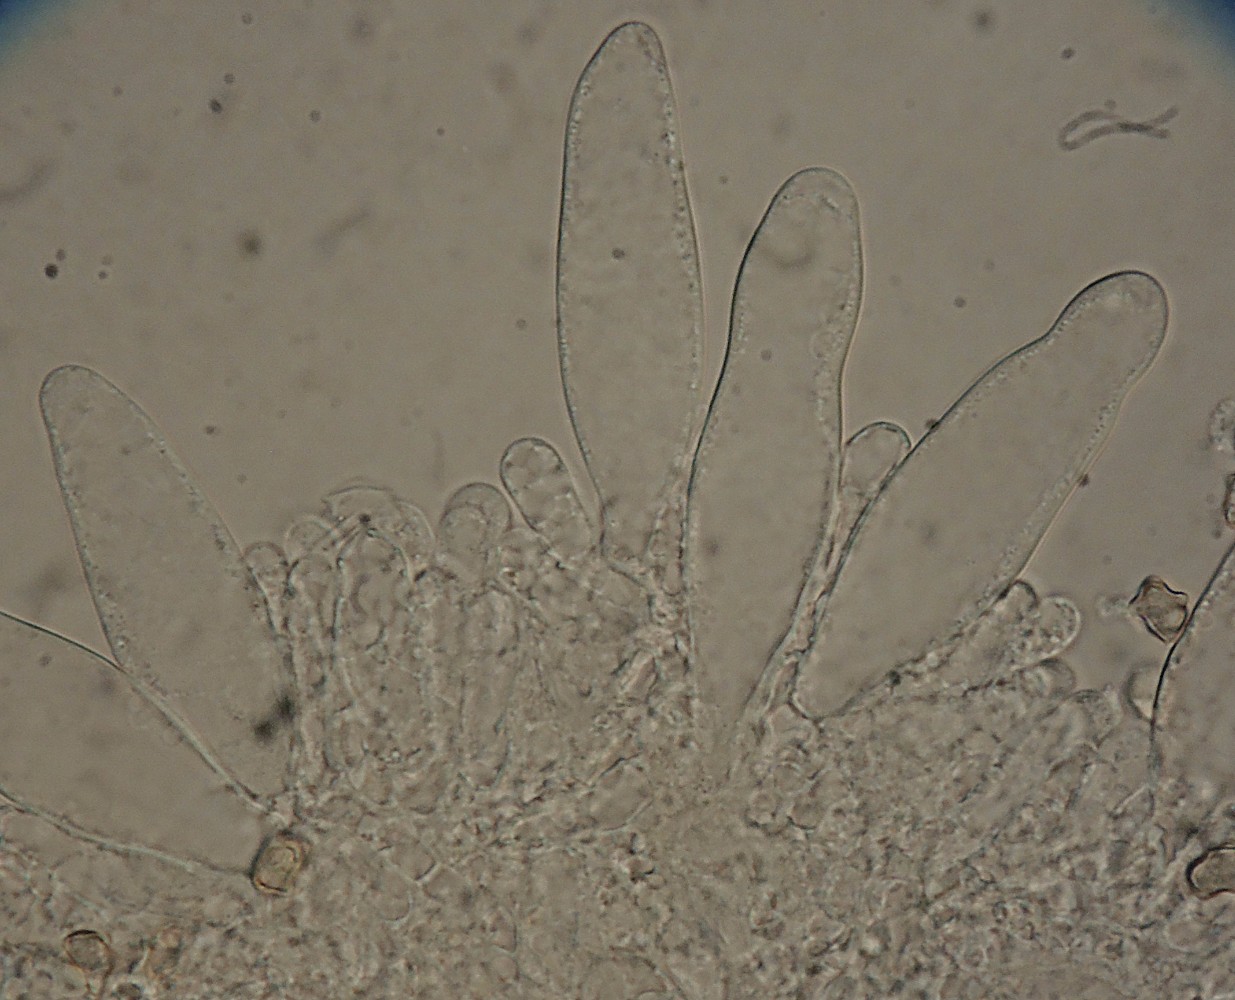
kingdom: Fungi
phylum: Basidiomycota
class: Agaricomycetes
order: Agaricales
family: Inocybaceae
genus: Inocybe
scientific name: Inocybe soluta
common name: lysbladet trævlhat
